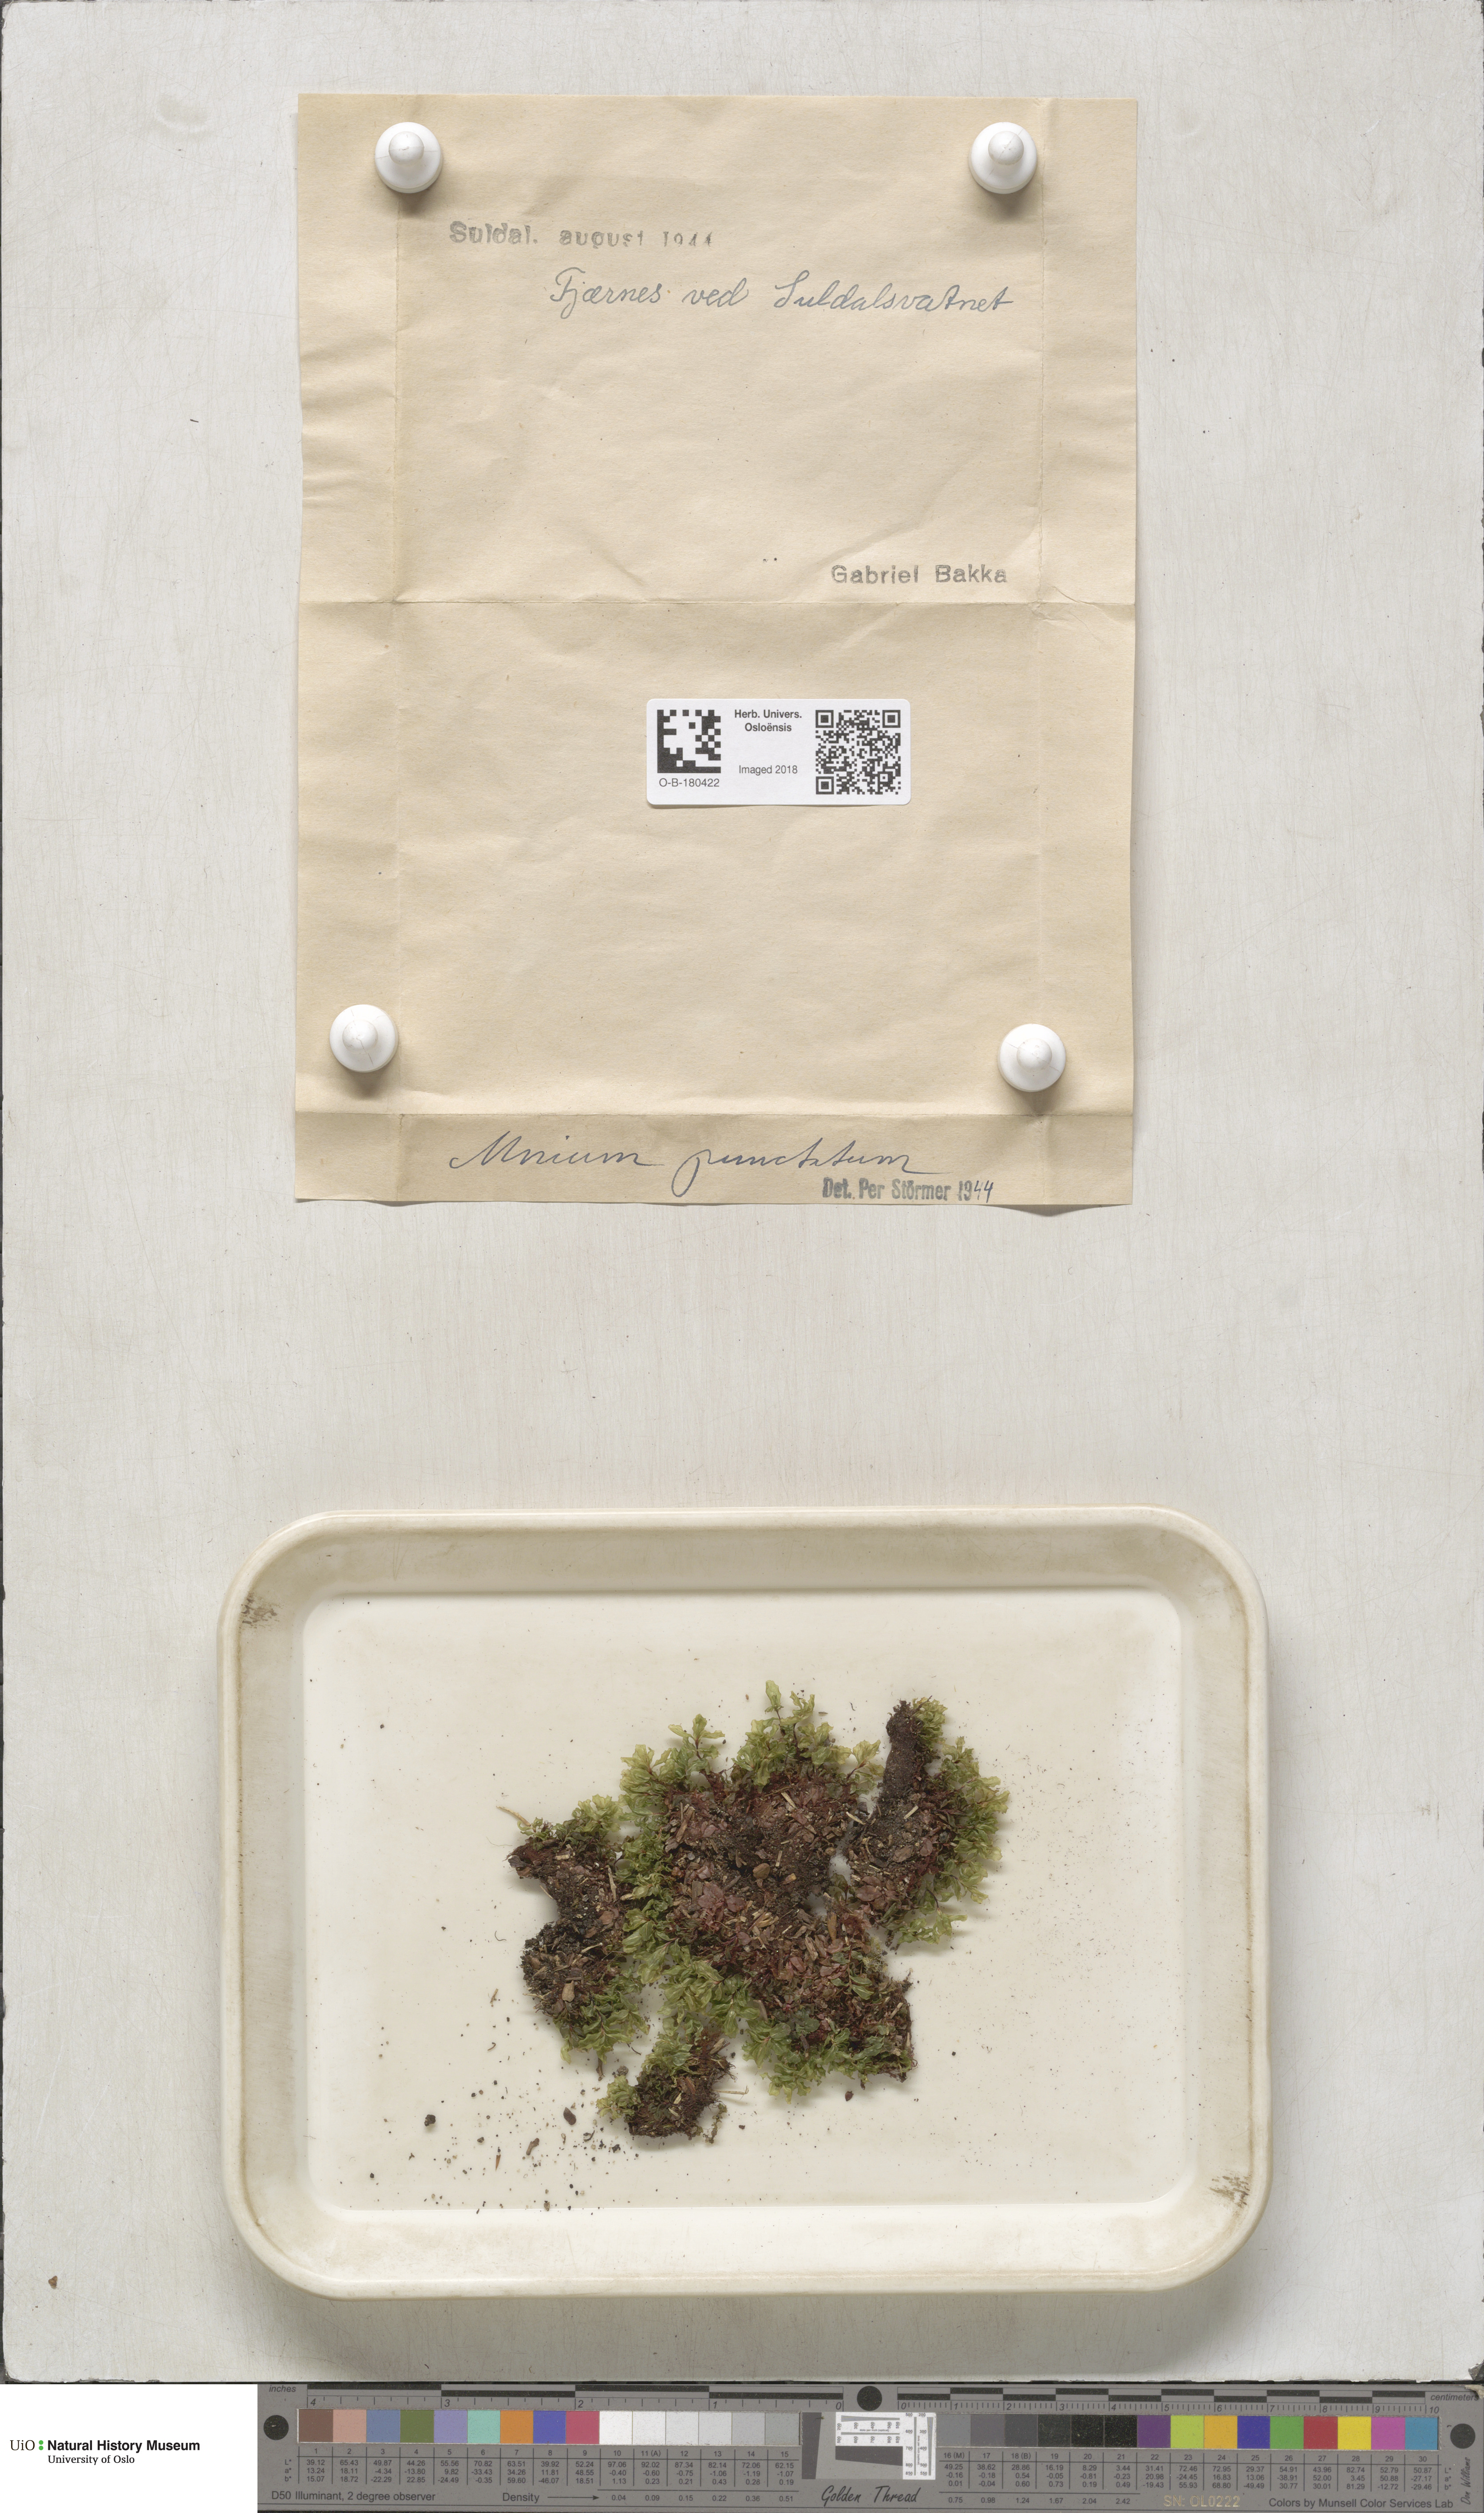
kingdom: Plantae
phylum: Bryophyta
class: Bryopsida
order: Bryales
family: Mniaceae
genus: Rhizomnium
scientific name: Rhizomnium punctatum
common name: Dotted leafy moss
